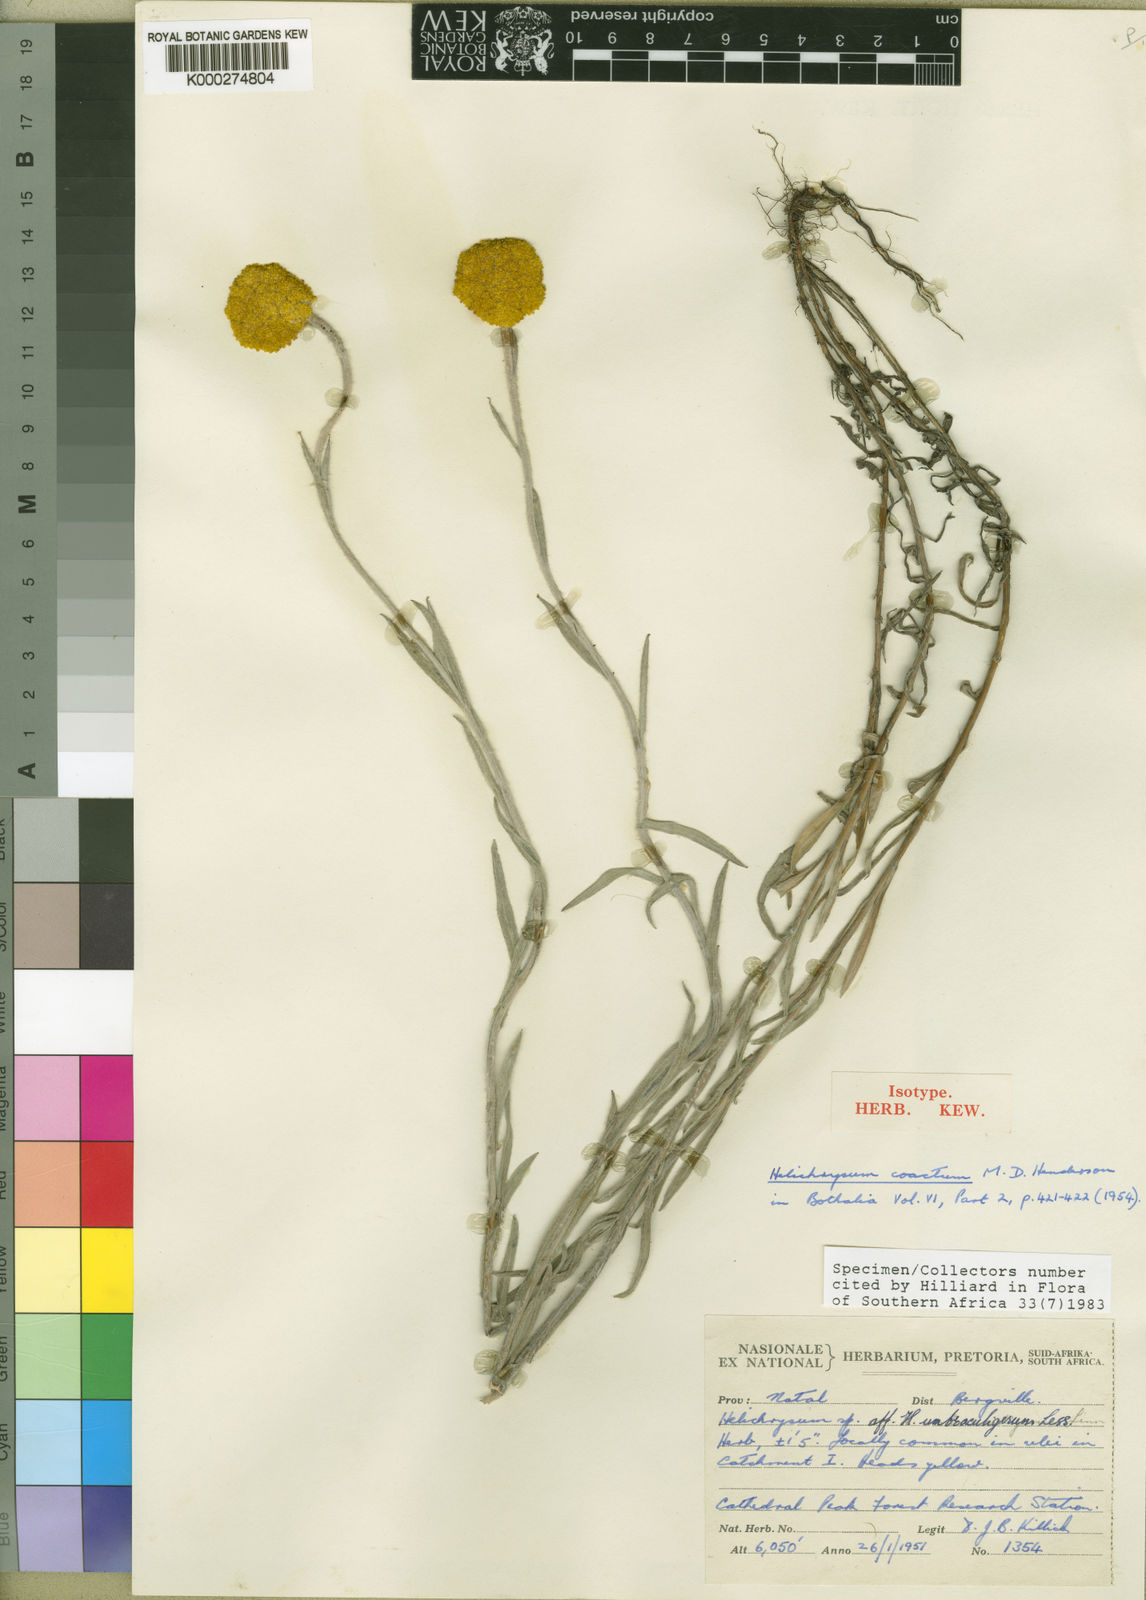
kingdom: Plantae
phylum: Tracheophyta
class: Magnoliopsida
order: Asterales
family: Asteraceae
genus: Helichrysum
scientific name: Helichrysum umbraculigerum
